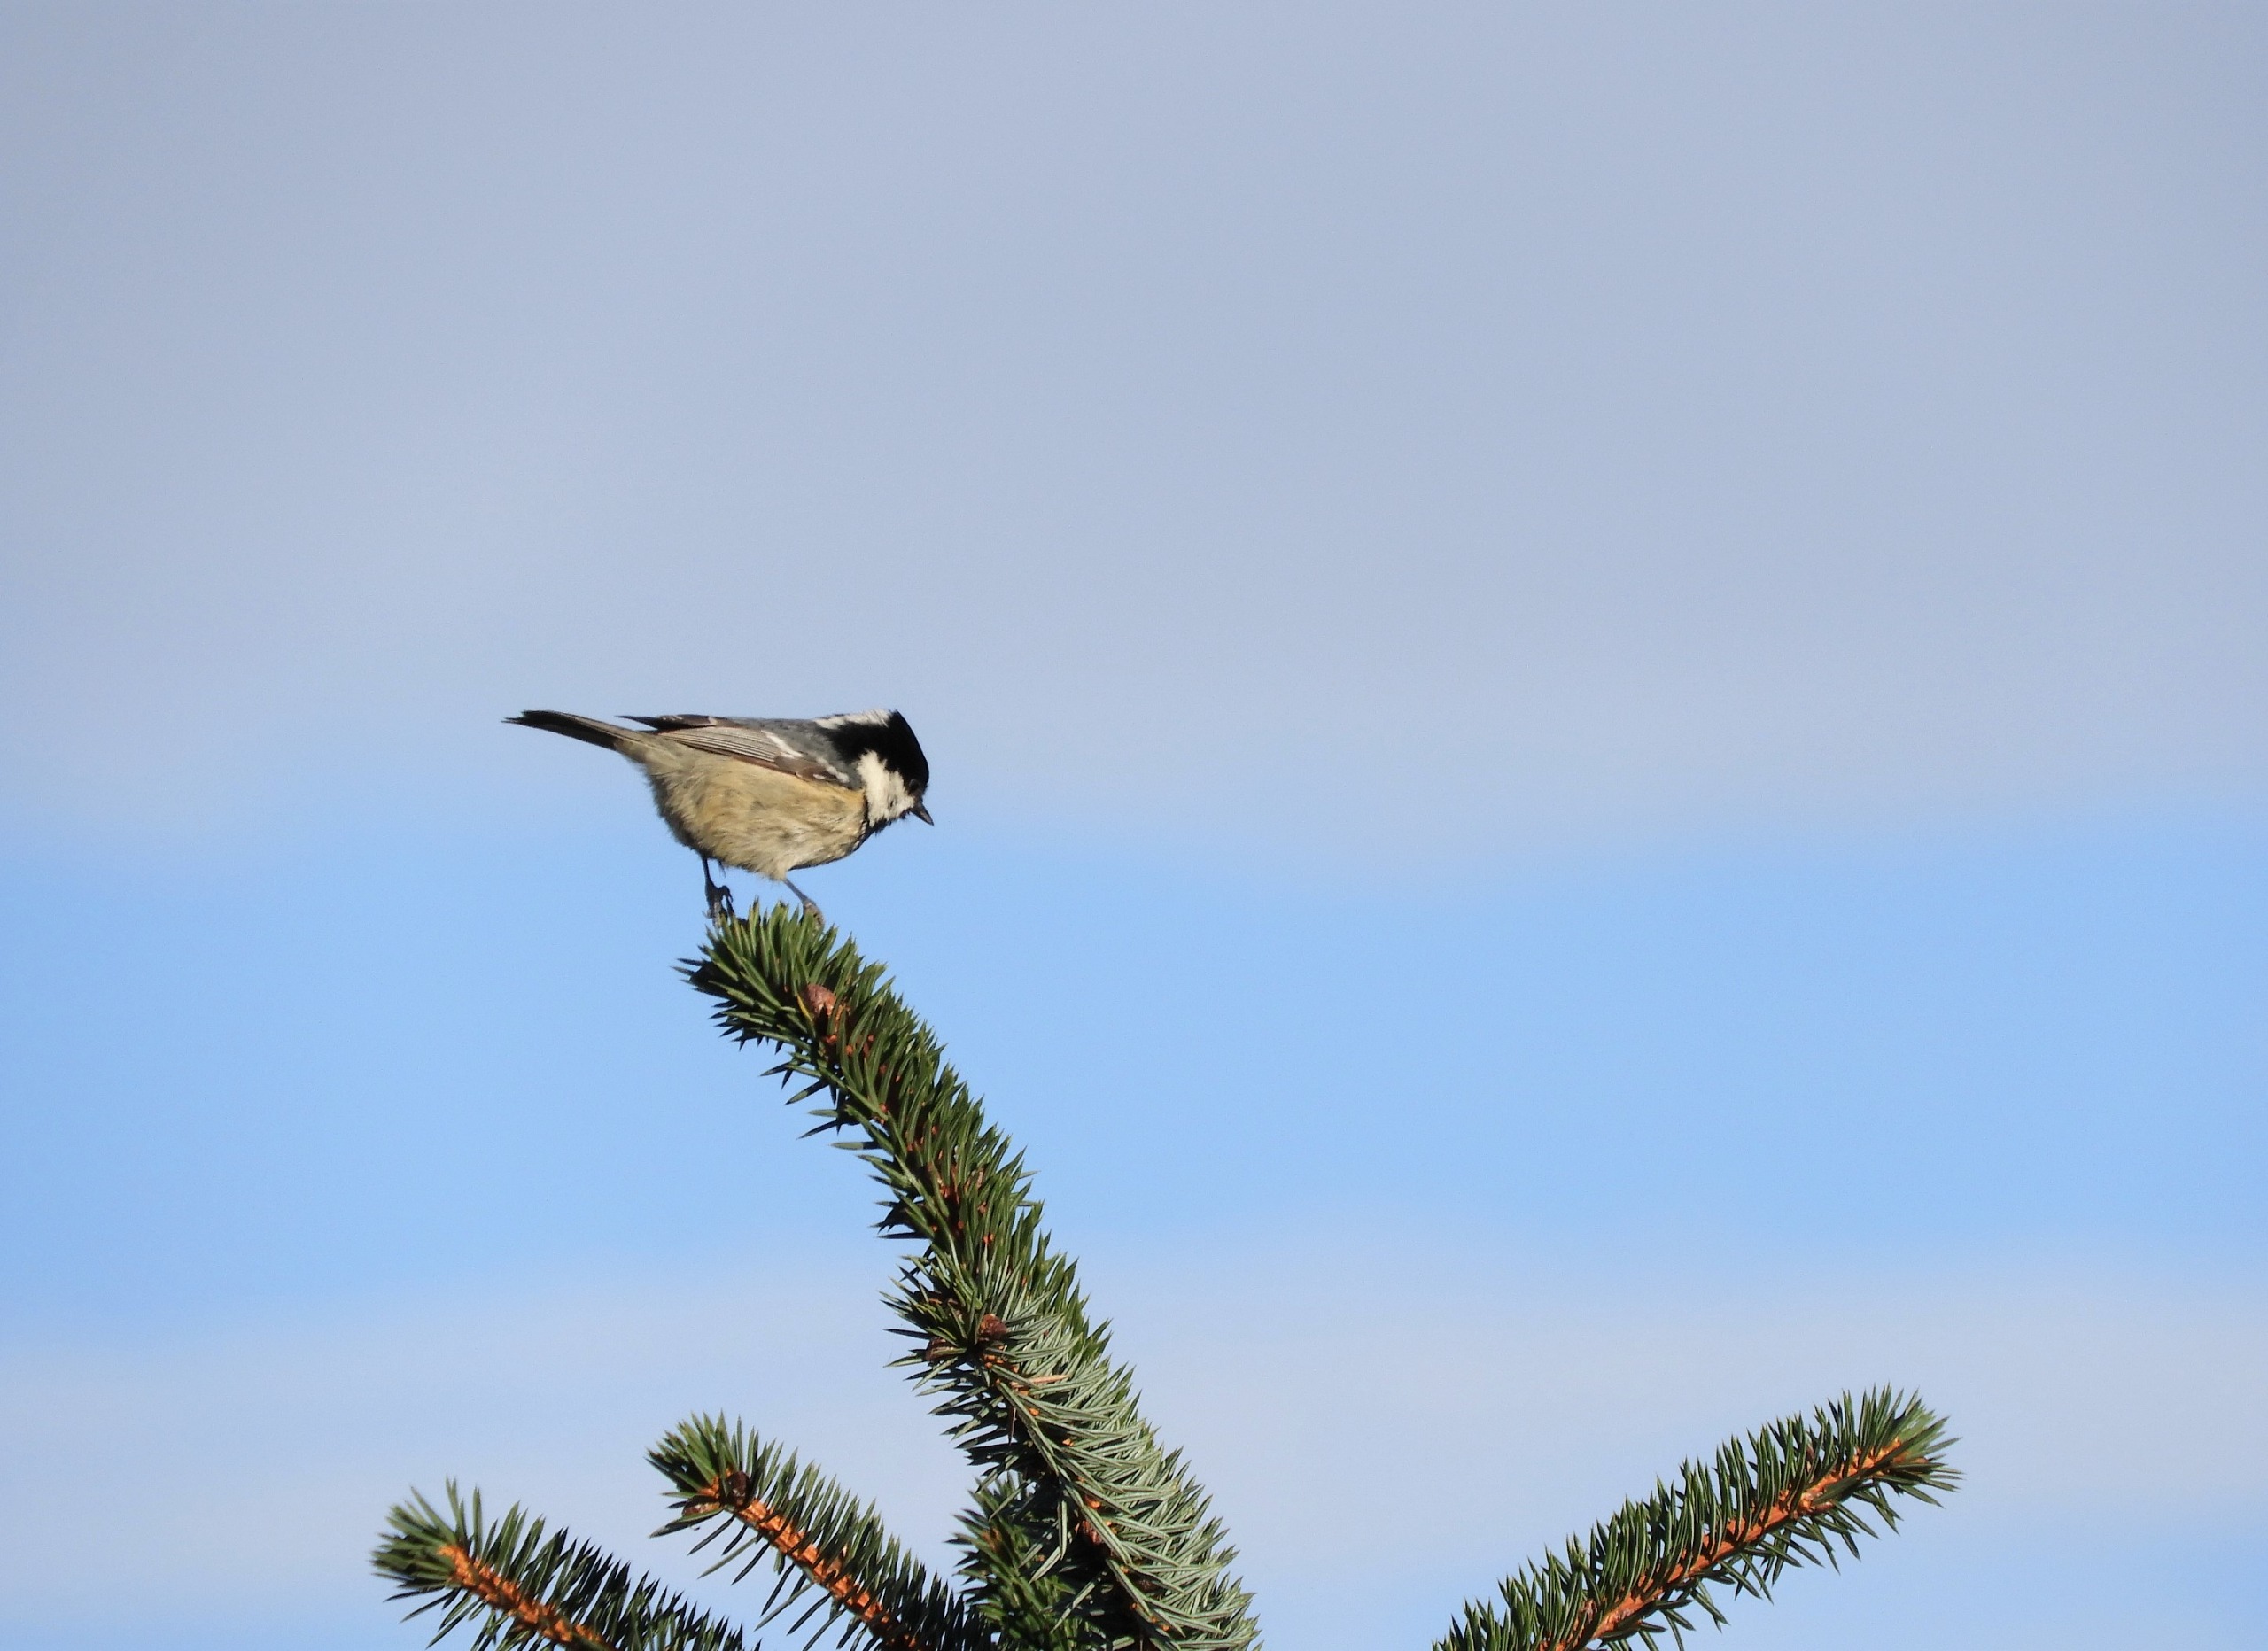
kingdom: Animalia
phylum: Chordata
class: Aves
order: Passeriformes
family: Paridae
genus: Periparus
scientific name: Periparus ater
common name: Sortmejse
